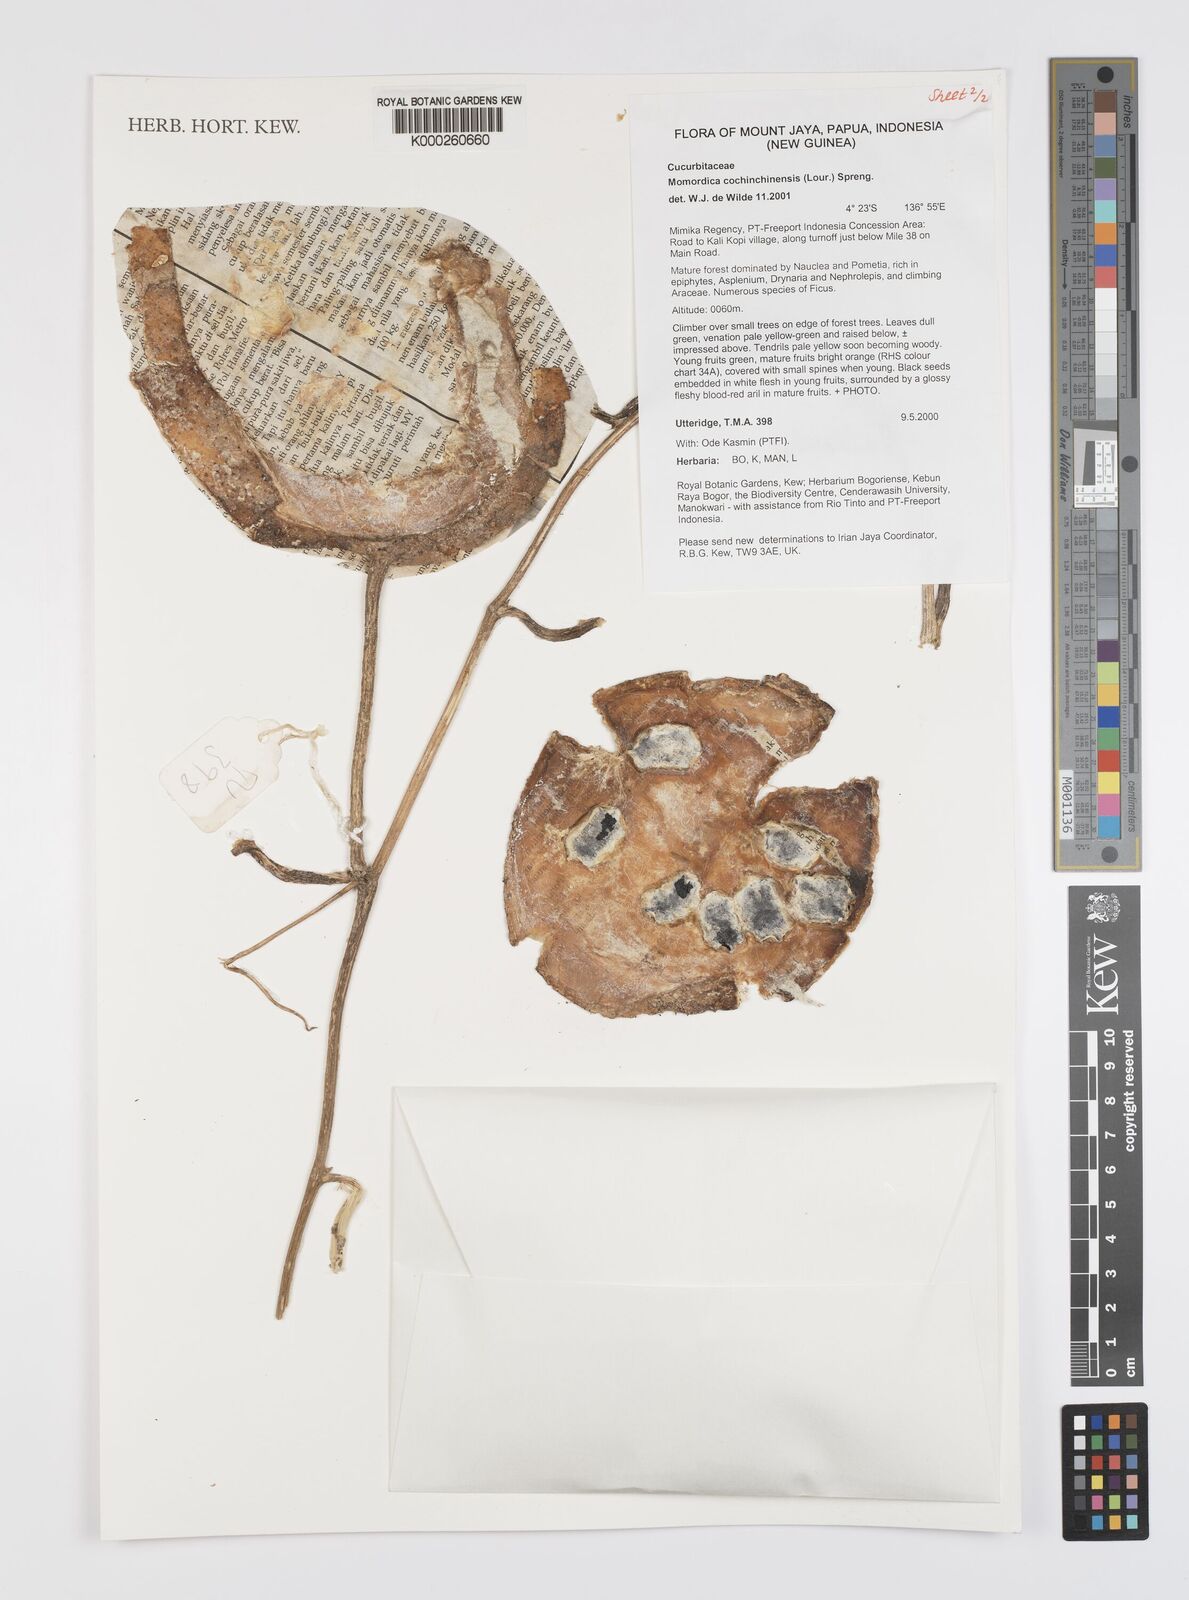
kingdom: Plantae
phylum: Tracheophyta
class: Magnoliopsida
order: Cucurbitales
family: Cucurbitaceae
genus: Momordica
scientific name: Momordica cochinchinensis
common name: Chinese bitter-cucumber
